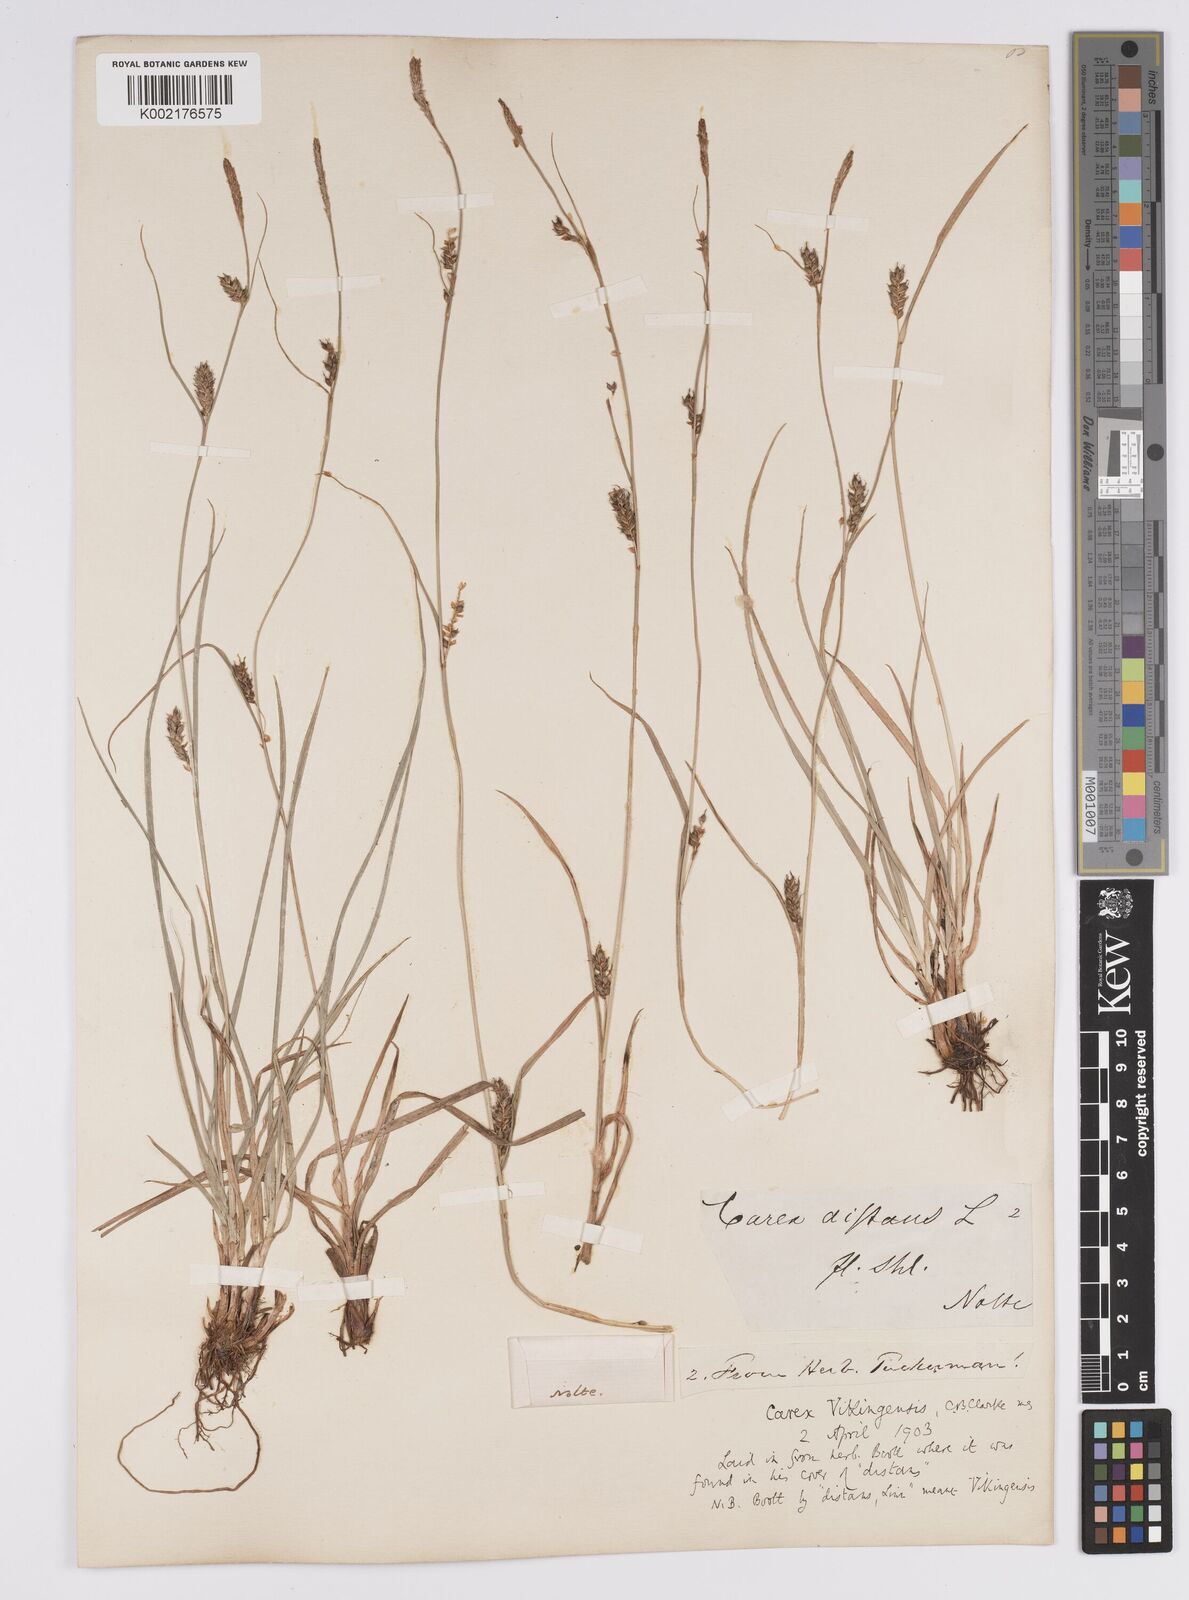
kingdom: Plantae
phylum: Tracheophyta
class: Liliopsida
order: Poales
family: Cyperaceae
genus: Carex
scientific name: Carex distans
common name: Distant sedge
